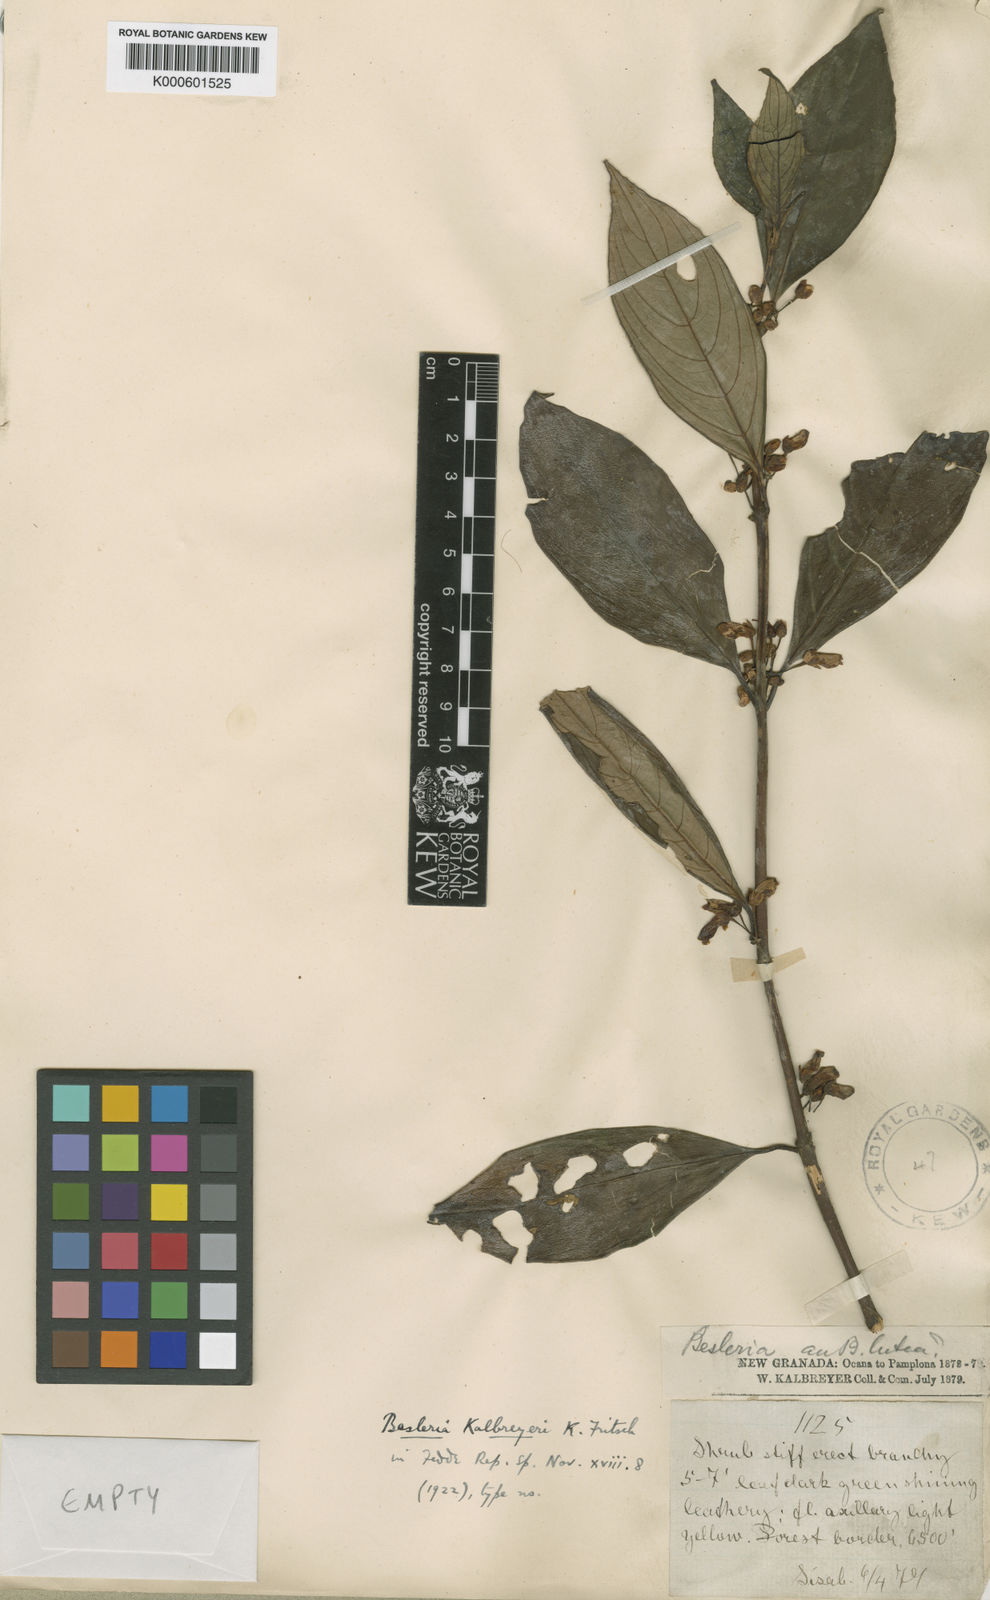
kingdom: Plantae
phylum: Tracheophyta
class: Magnoliopsida
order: Lamiales
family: Gesneriaceae
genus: Besleria
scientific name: Besleria kalbreyeri
